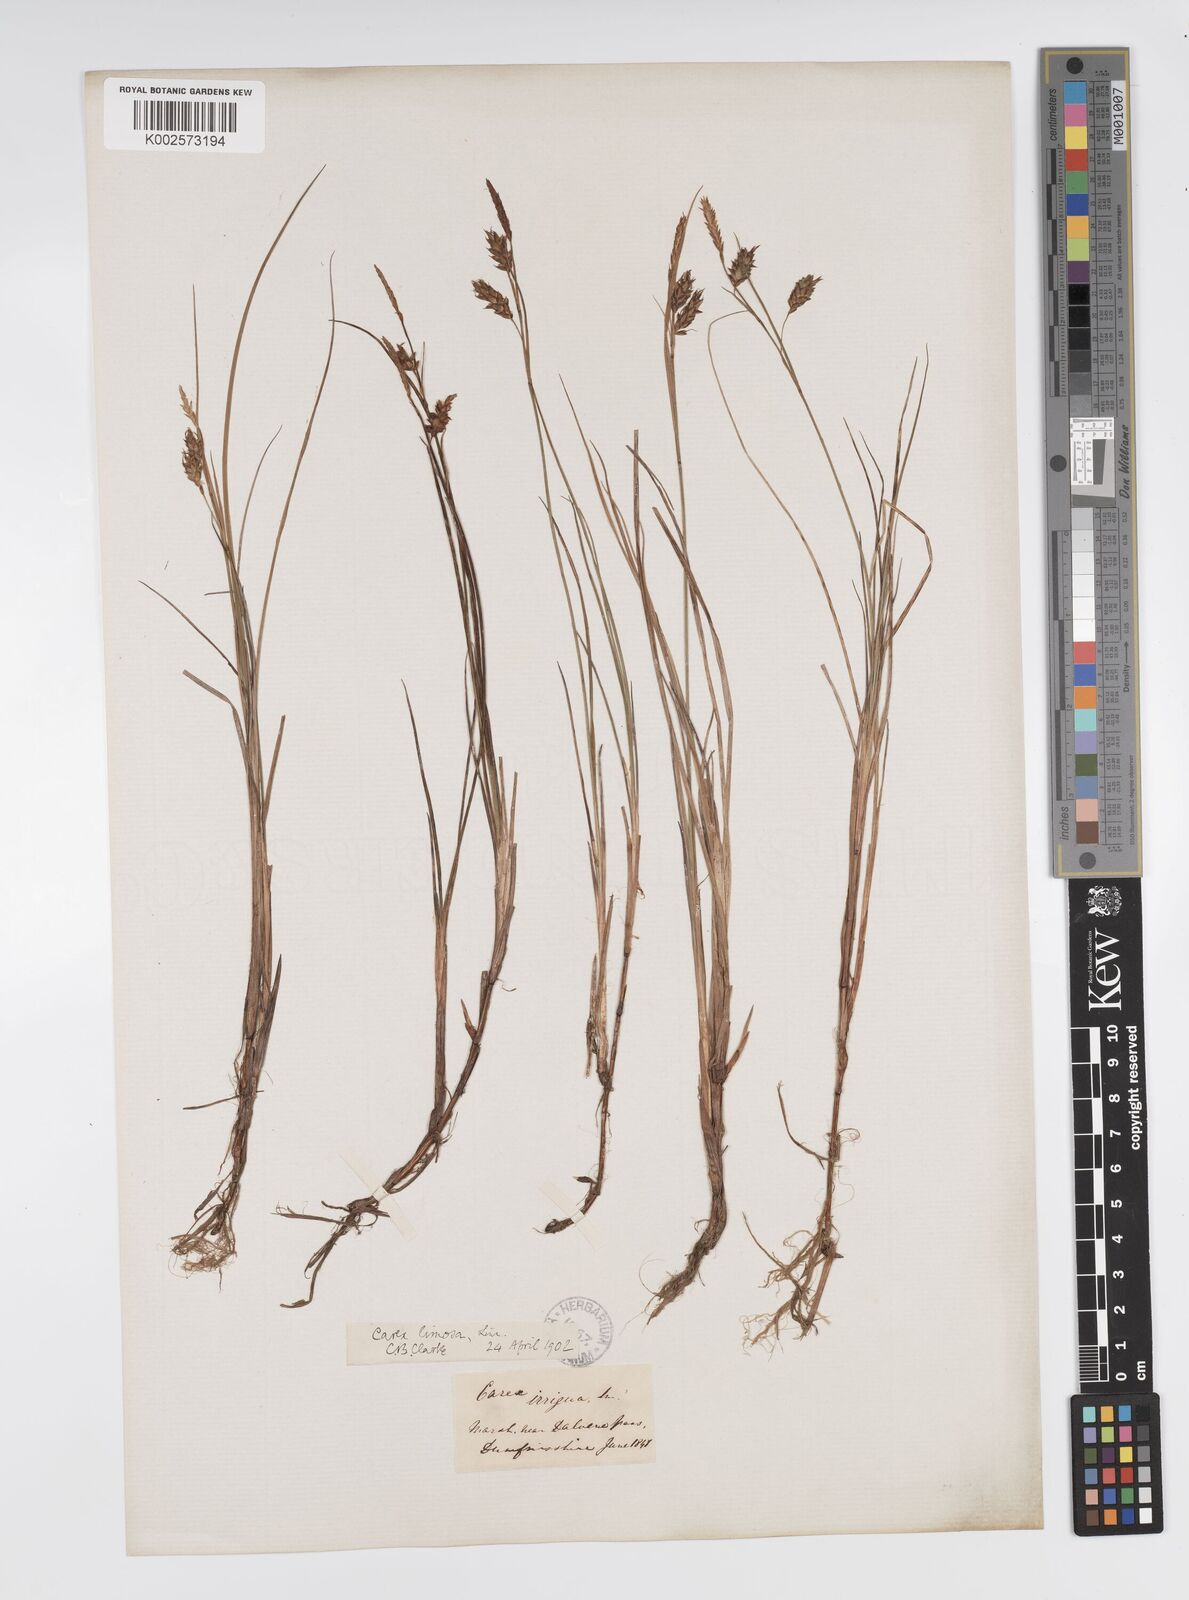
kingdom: Plantae
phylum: Tracheophyta
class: Liliopsida
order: Poales
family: Cyperaceae
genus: Carex
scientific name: Carex magellanica
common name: Bog sedge
